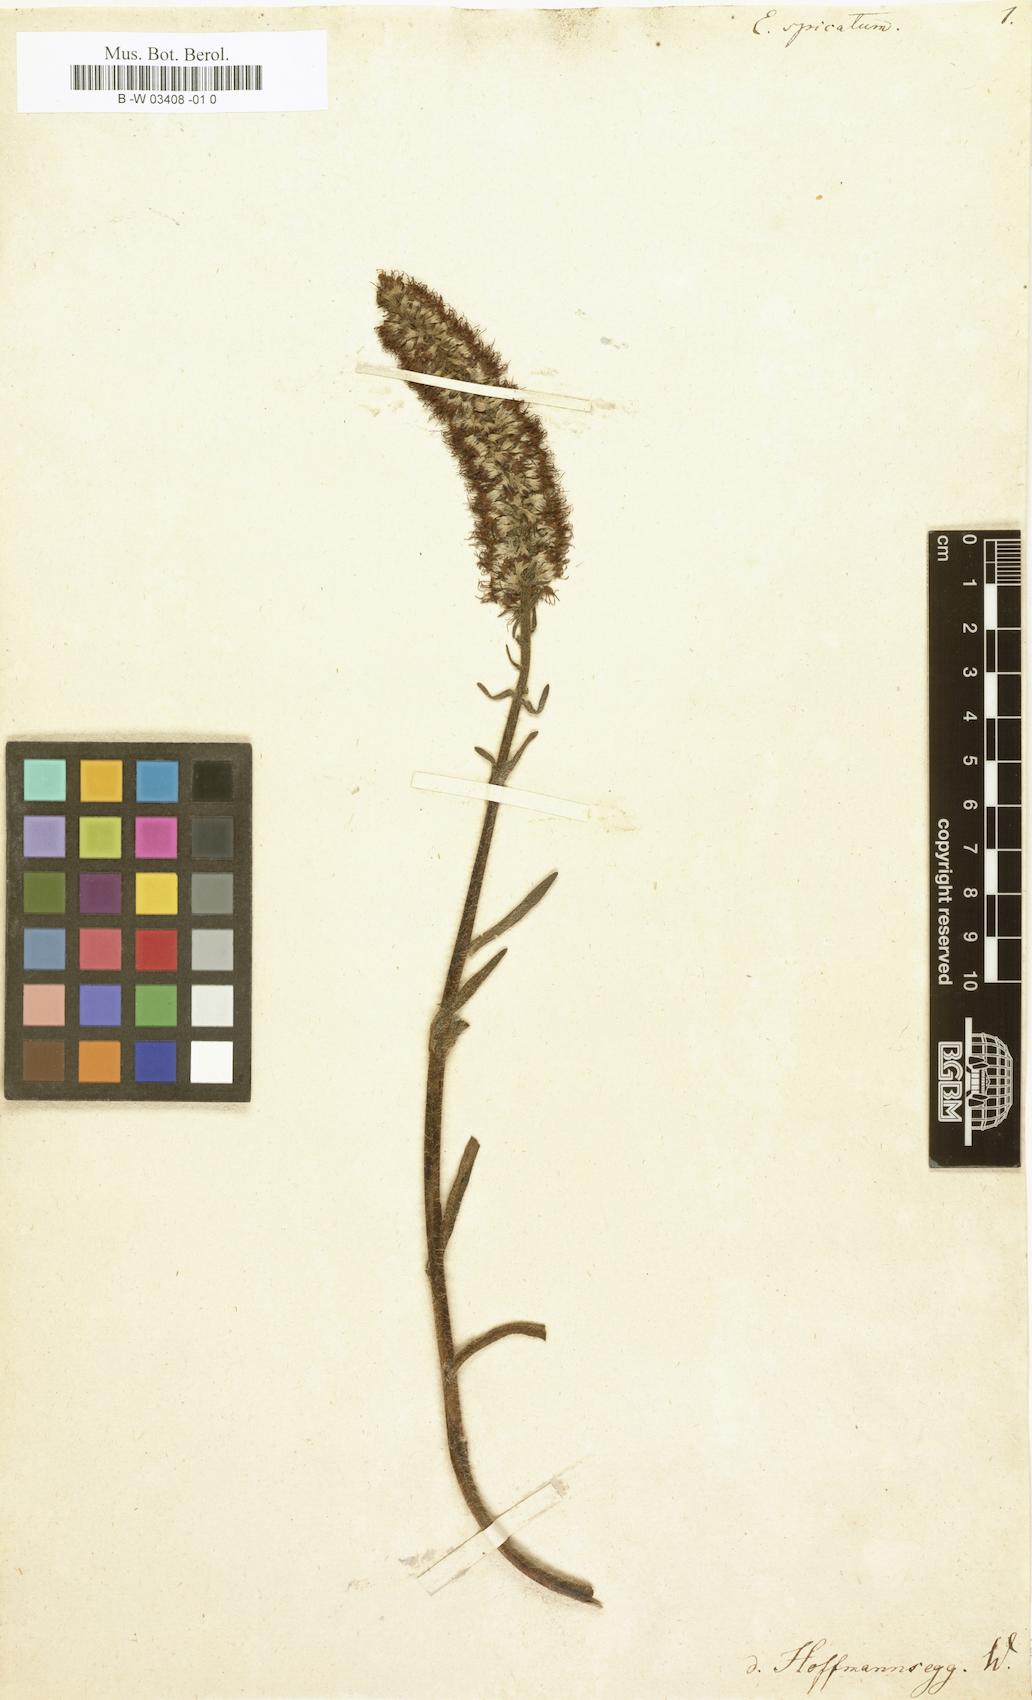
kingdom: Plantae
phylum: Tracheophyta
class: Magnoliopsida
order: Boraginales
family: Boraginaceae
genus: Lobostemon
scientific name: Lobostemon spicatus
